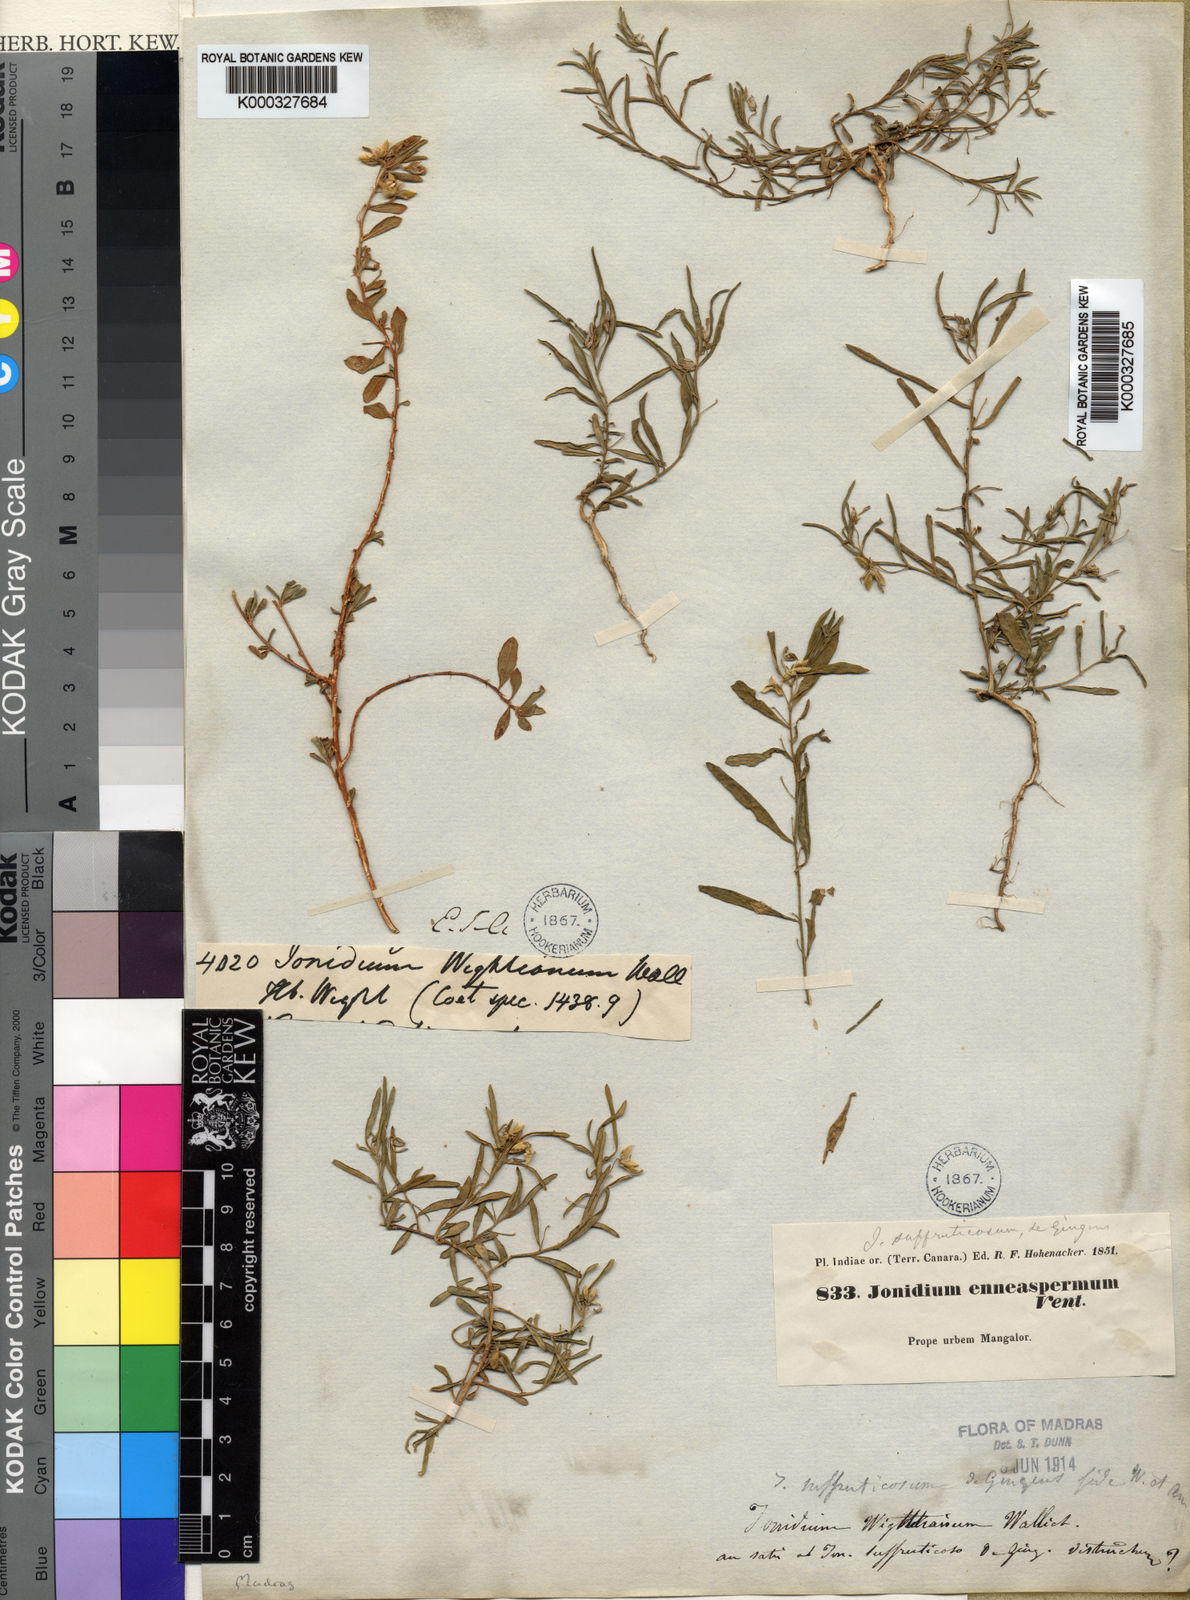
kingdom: Plantae
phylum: Tracheophyta
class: Magnoliopsida
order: Malpighiales
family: Violaceae
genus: Hybanthus
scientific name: Hybanthus
